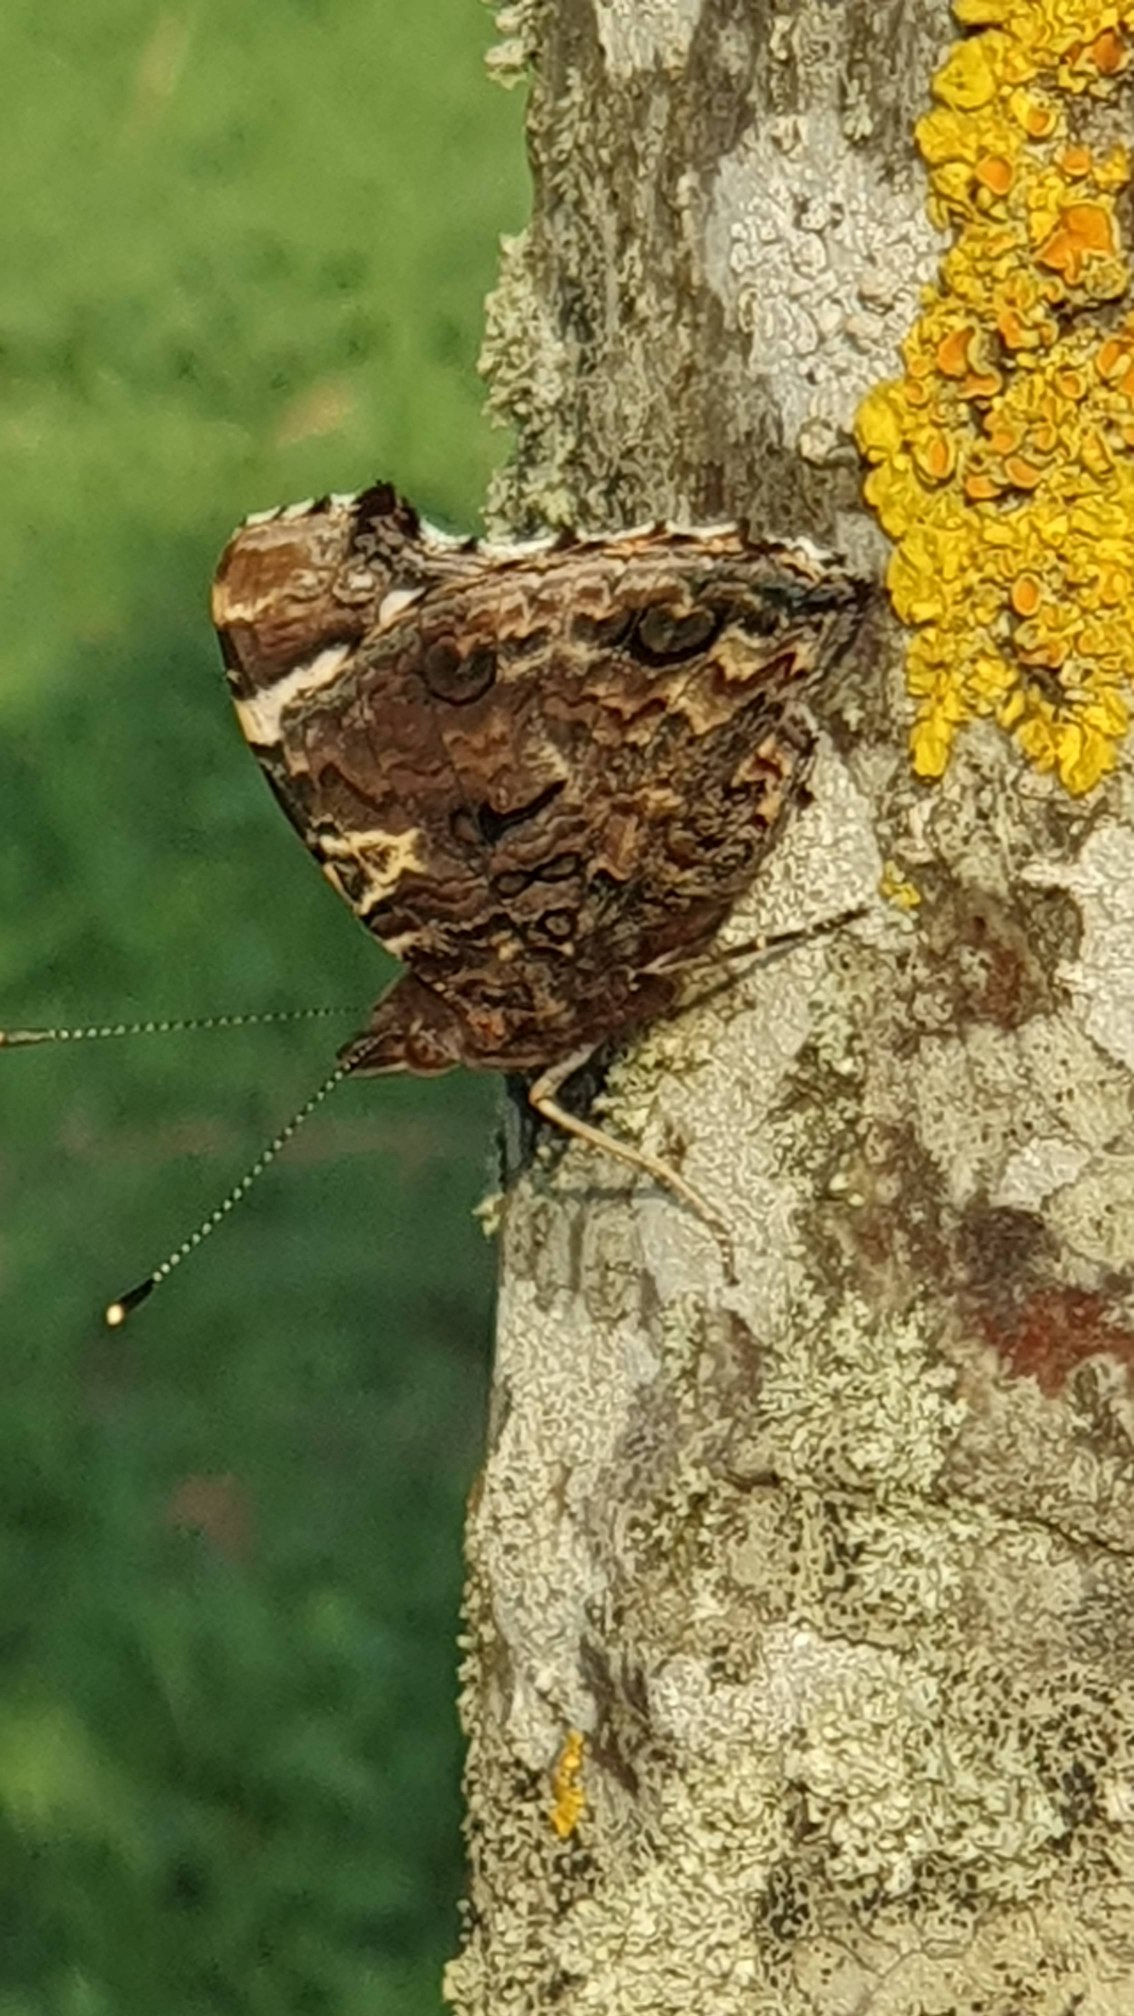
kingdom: Animalia
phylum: Arthropoda
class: Insecta
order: Lepidoptera
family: Nymphalidae
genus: Vanessa
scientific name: Vanessa atalanta
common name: Admiral
